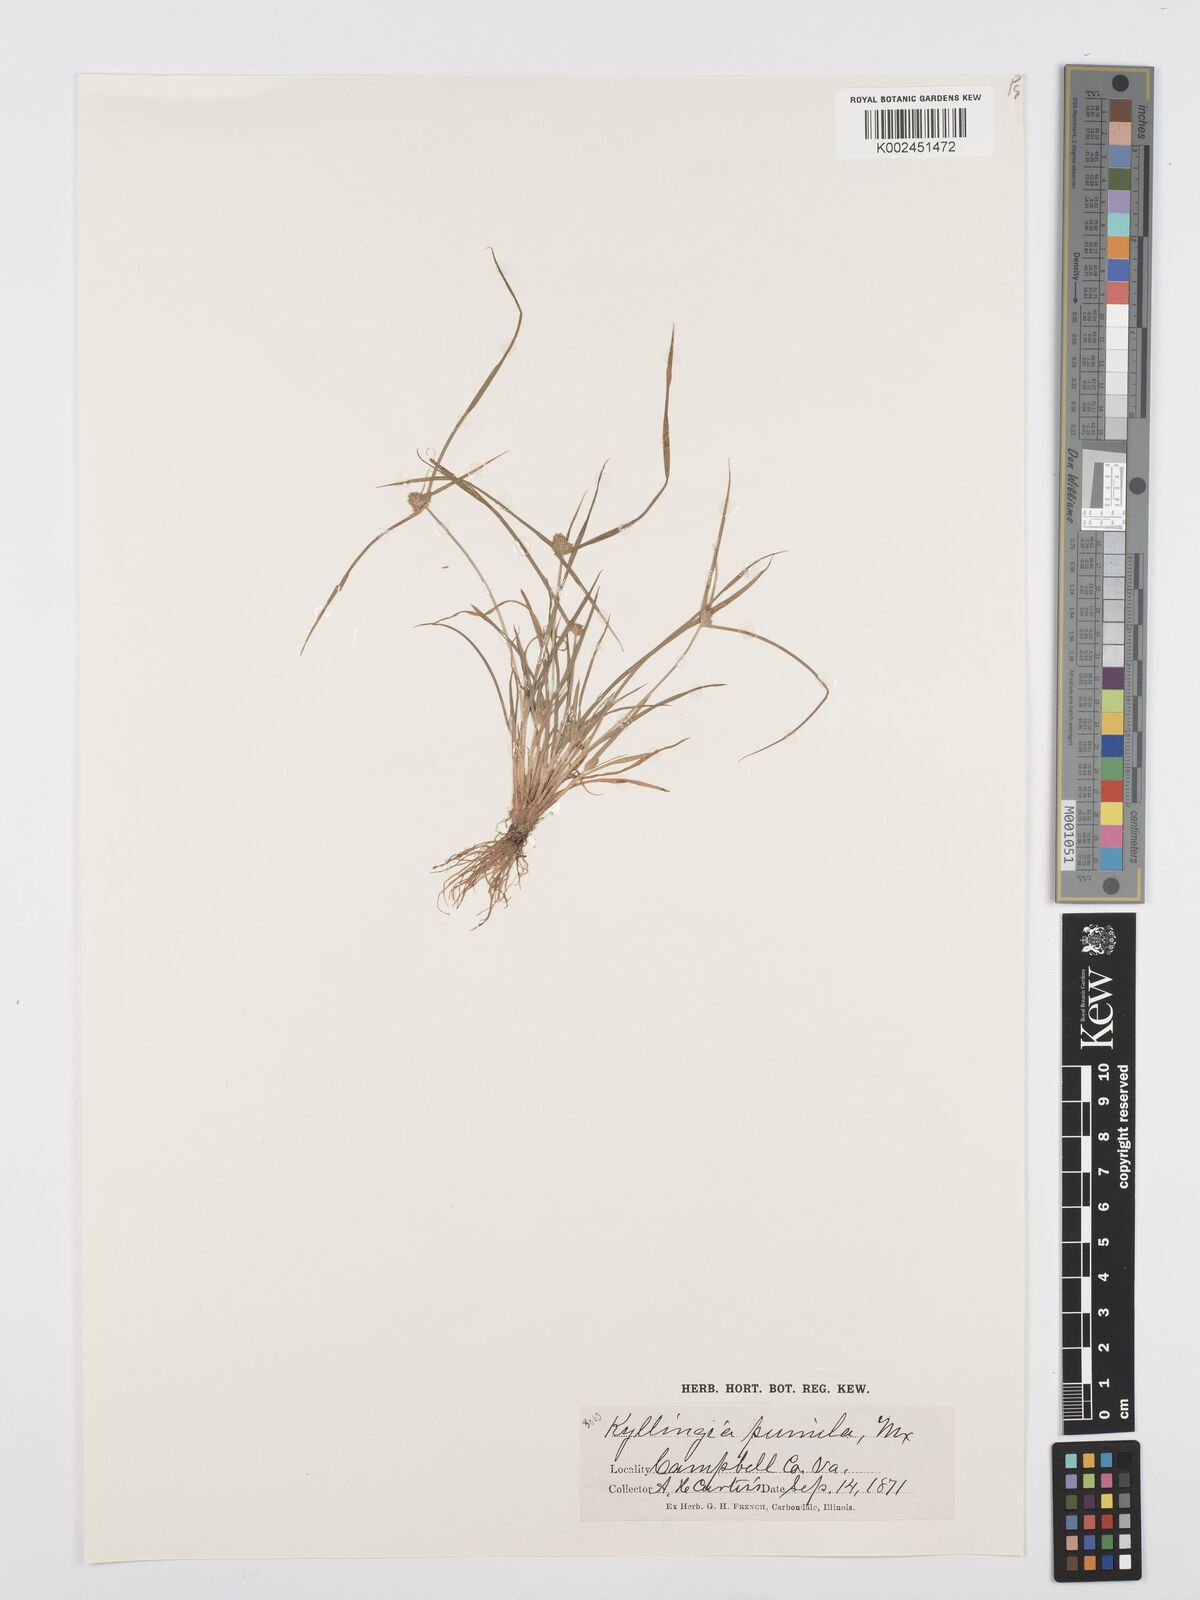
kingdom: Plantae
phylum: Tracheophyta
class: Liliopsida
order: Poales
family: Cyperaceae
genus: Cyperus
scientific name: Cyperus
